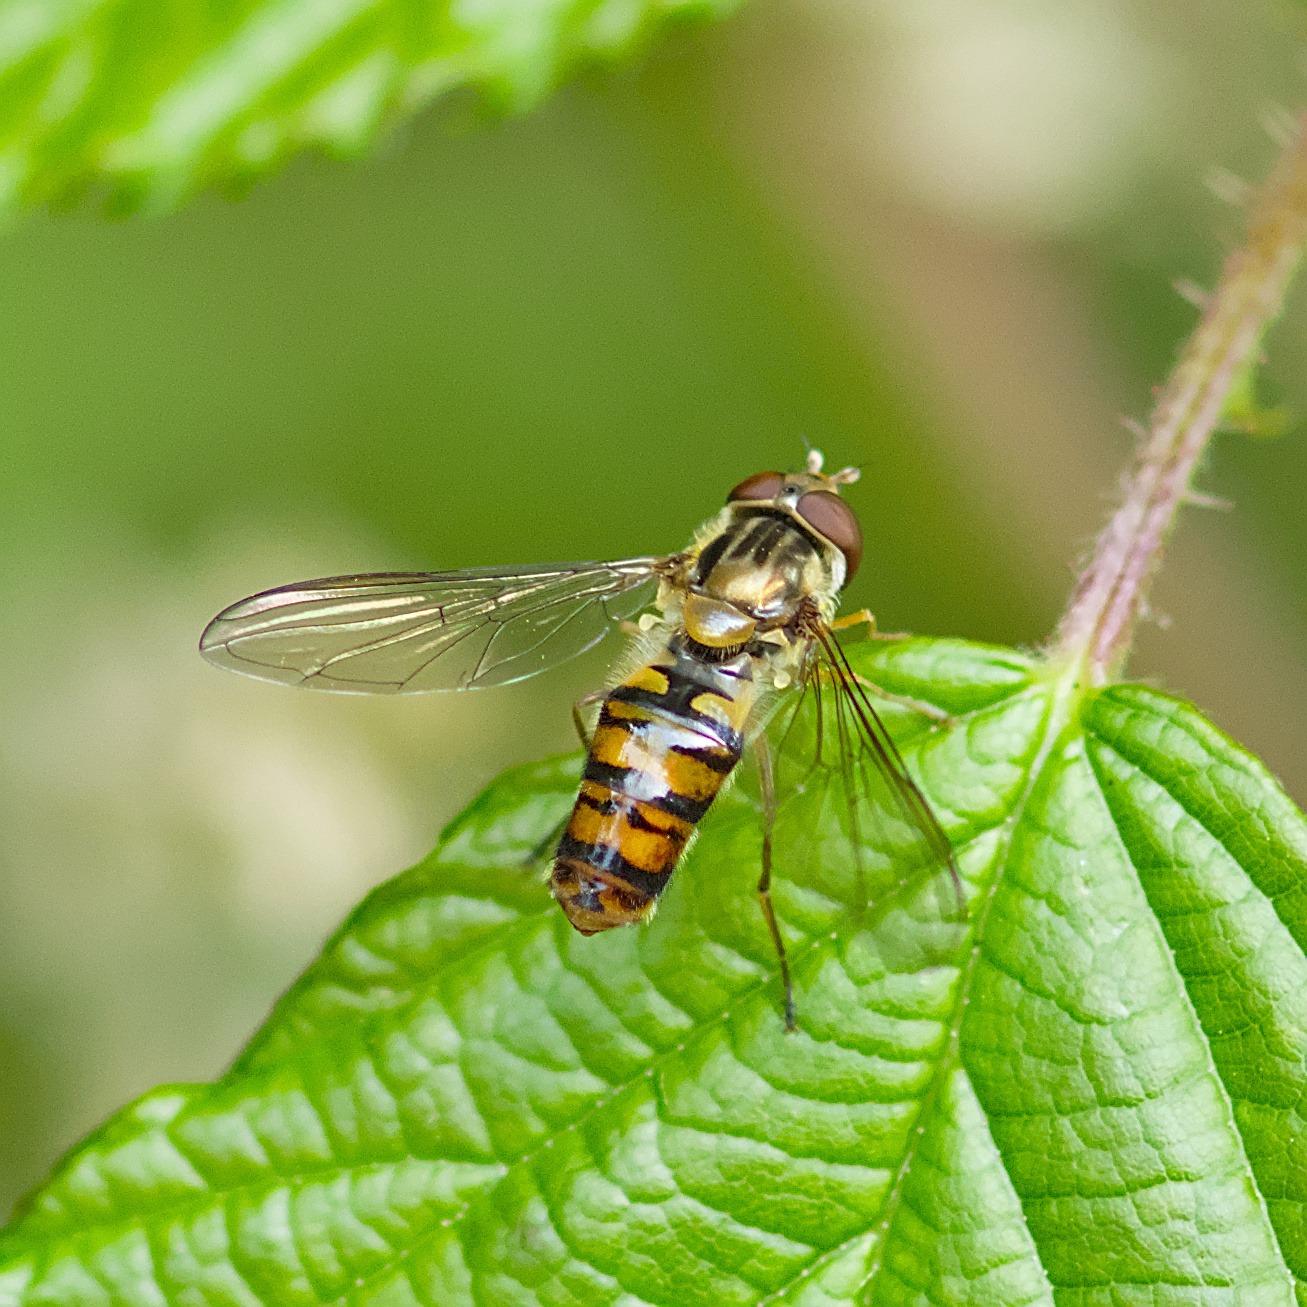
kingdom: Animalia
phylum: Arthropoda
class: Insecta
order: Diptera
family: Syrphidae
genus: Episyrphus
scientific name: Episyrphus balteatus
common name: Dobbeltbåndet svirreflue
